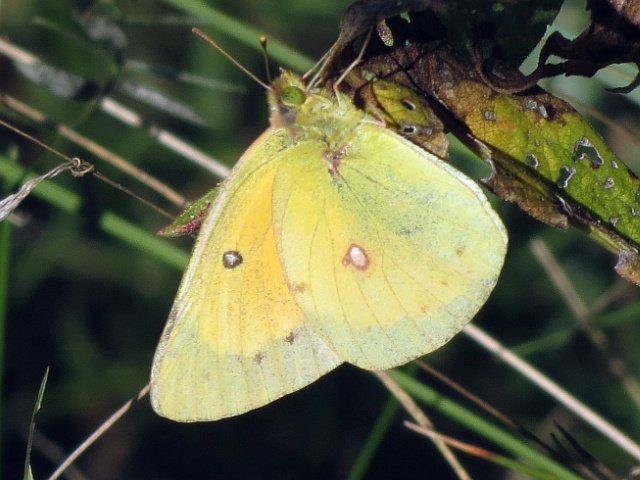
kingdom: Animalia
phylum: Arthropoda
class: Insecta
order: Lepidoptera
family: Pieridae
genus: Colias
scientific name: Colias eurytheme
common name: Orange Sulphur
